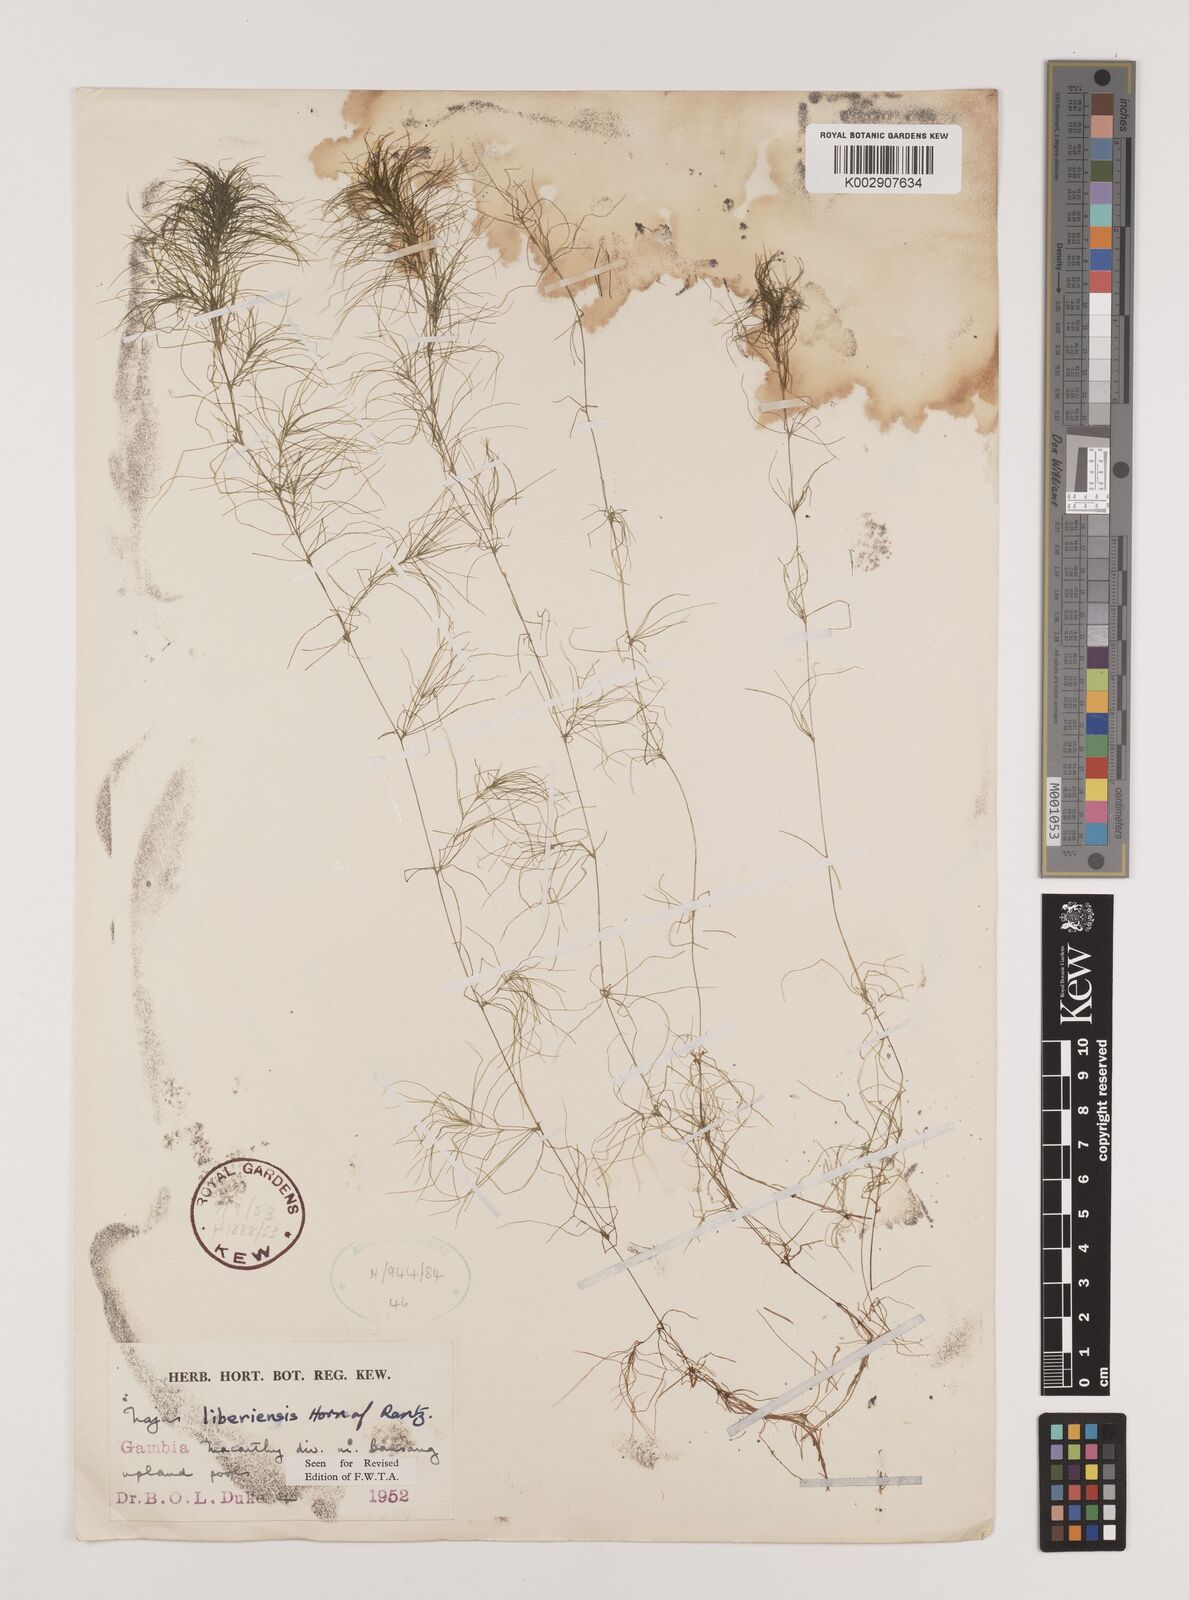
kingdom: Plantae
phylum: Tracheophyta
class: Liliopsida
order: Alismatales
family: Hydrocharitaceae
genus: Najas
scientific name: Najas baldwinii
